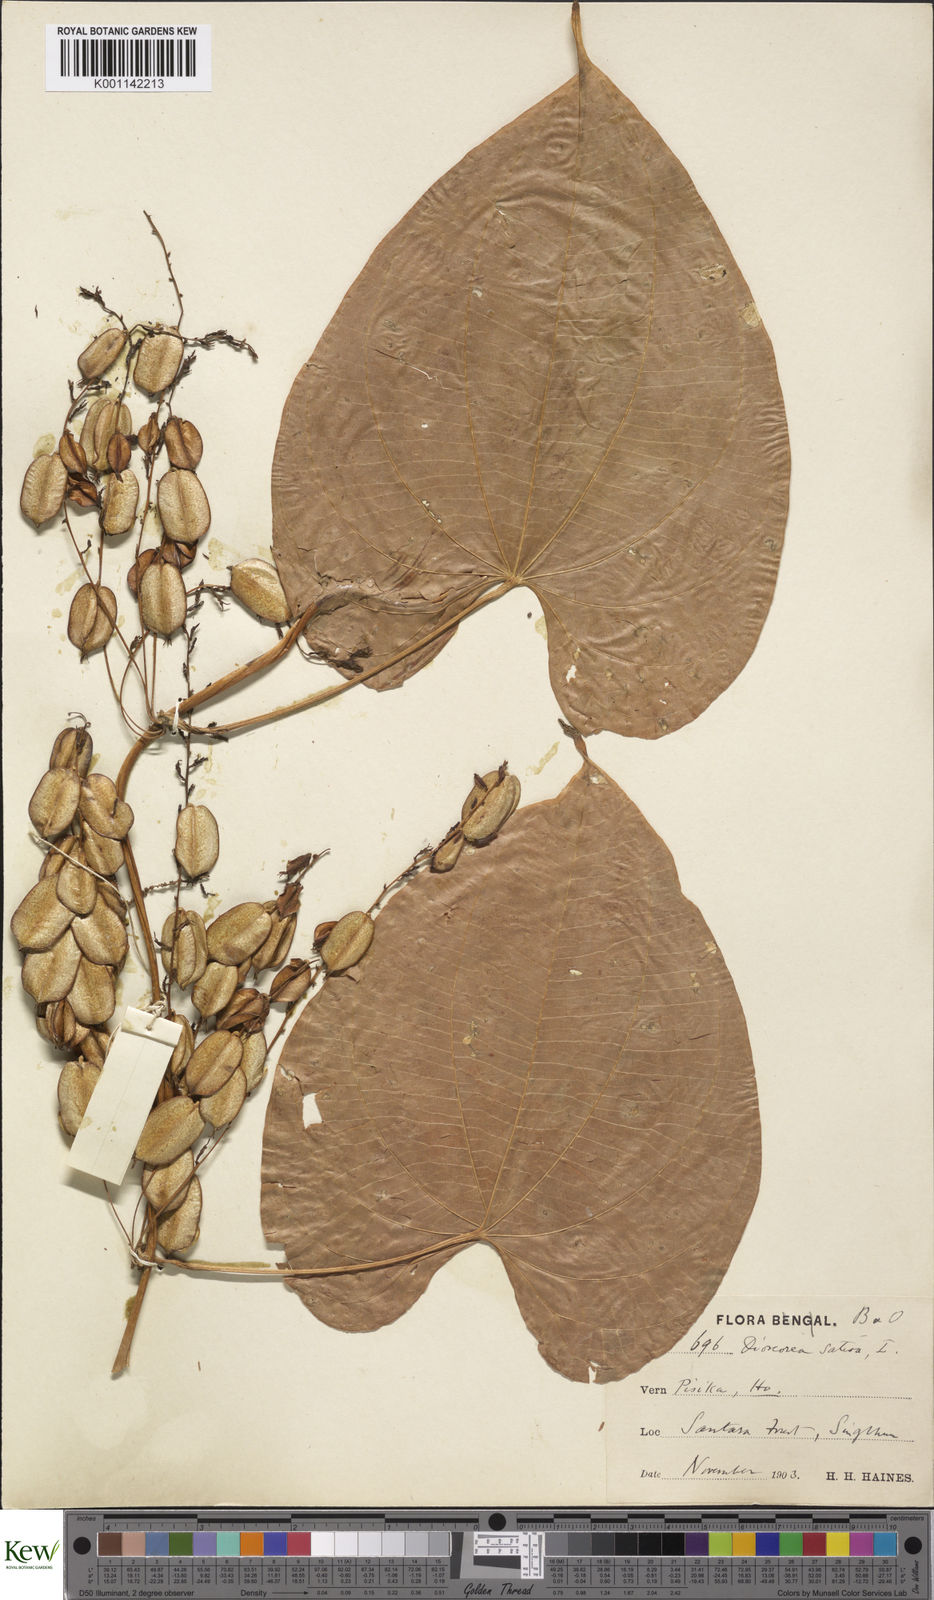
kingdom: Plantae
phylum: Tracheophyta
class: Liliopsida
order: Dioscoreales
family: Dioscoreaceae
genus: Dioscorea
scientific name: Dioscorea bulbifera
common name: Air yam
